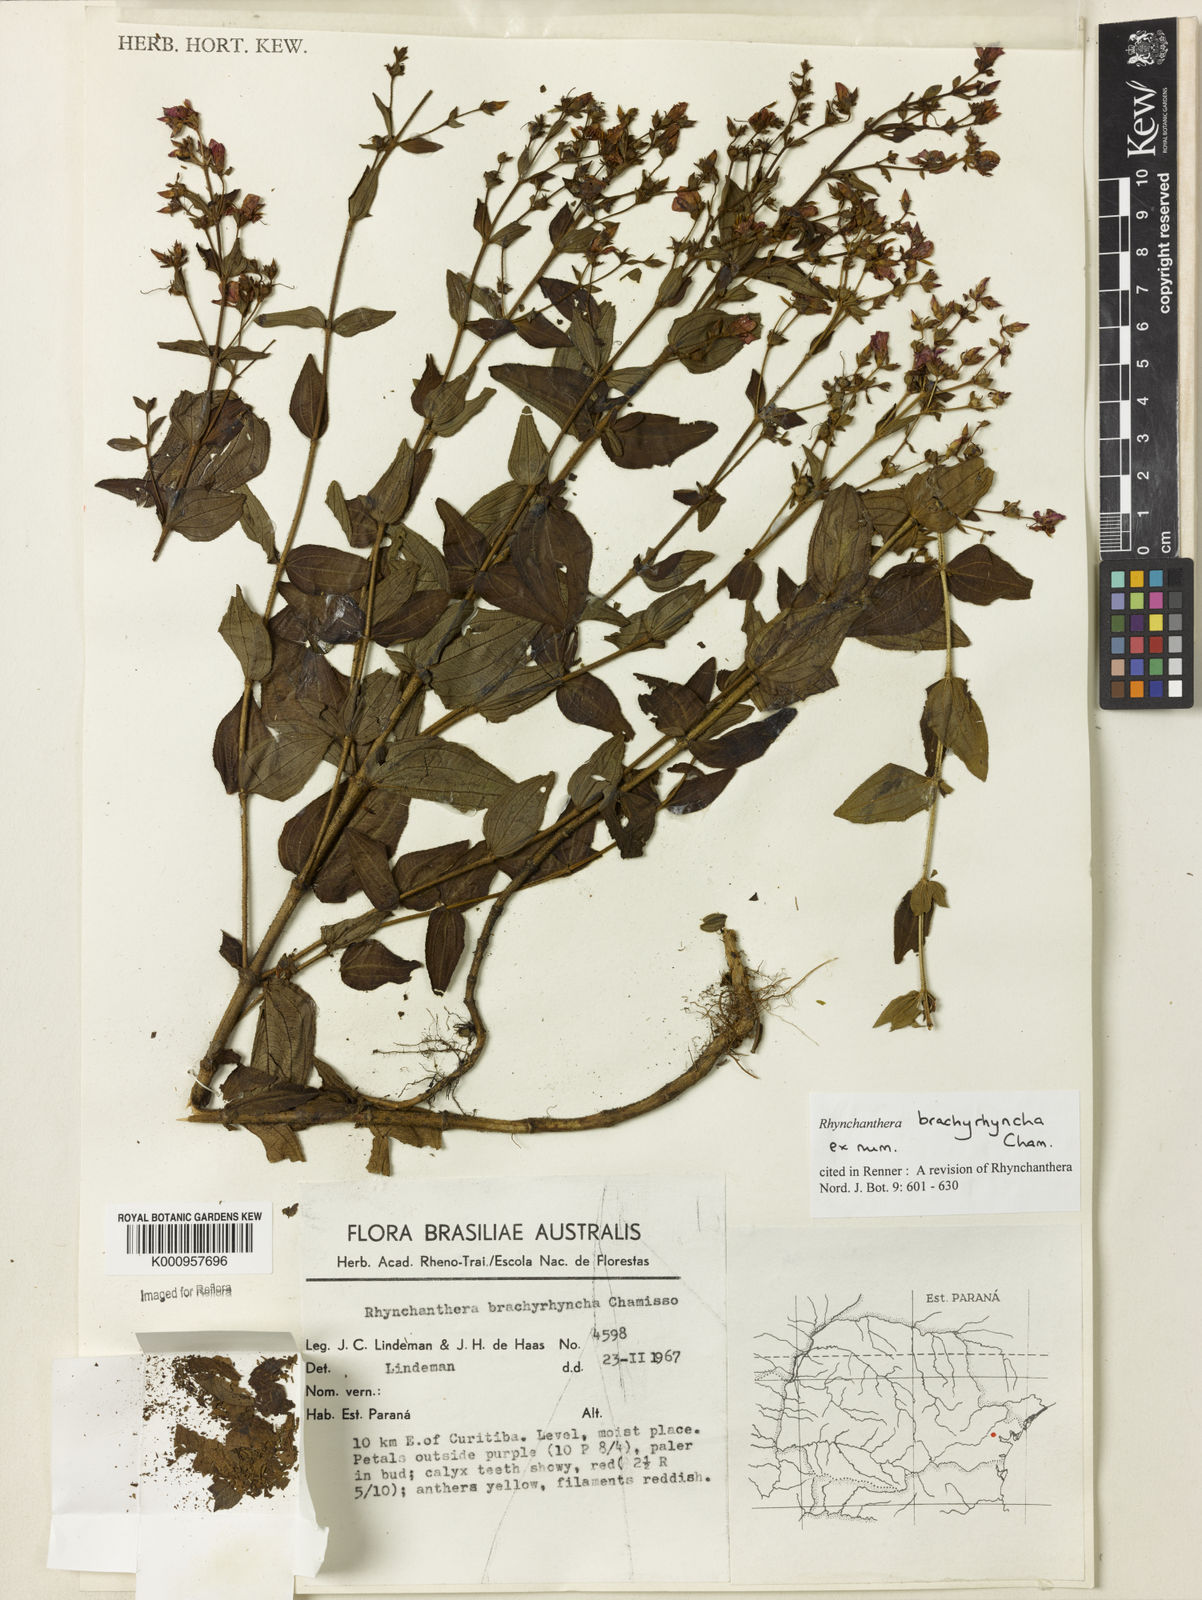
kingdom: Plantae
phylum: Tracheophyta
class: Magnoliopsida
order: Myrtales
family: Melastomataceae
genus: Rhynchanthera
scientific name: Rhynchanthera brachyrhyncha
